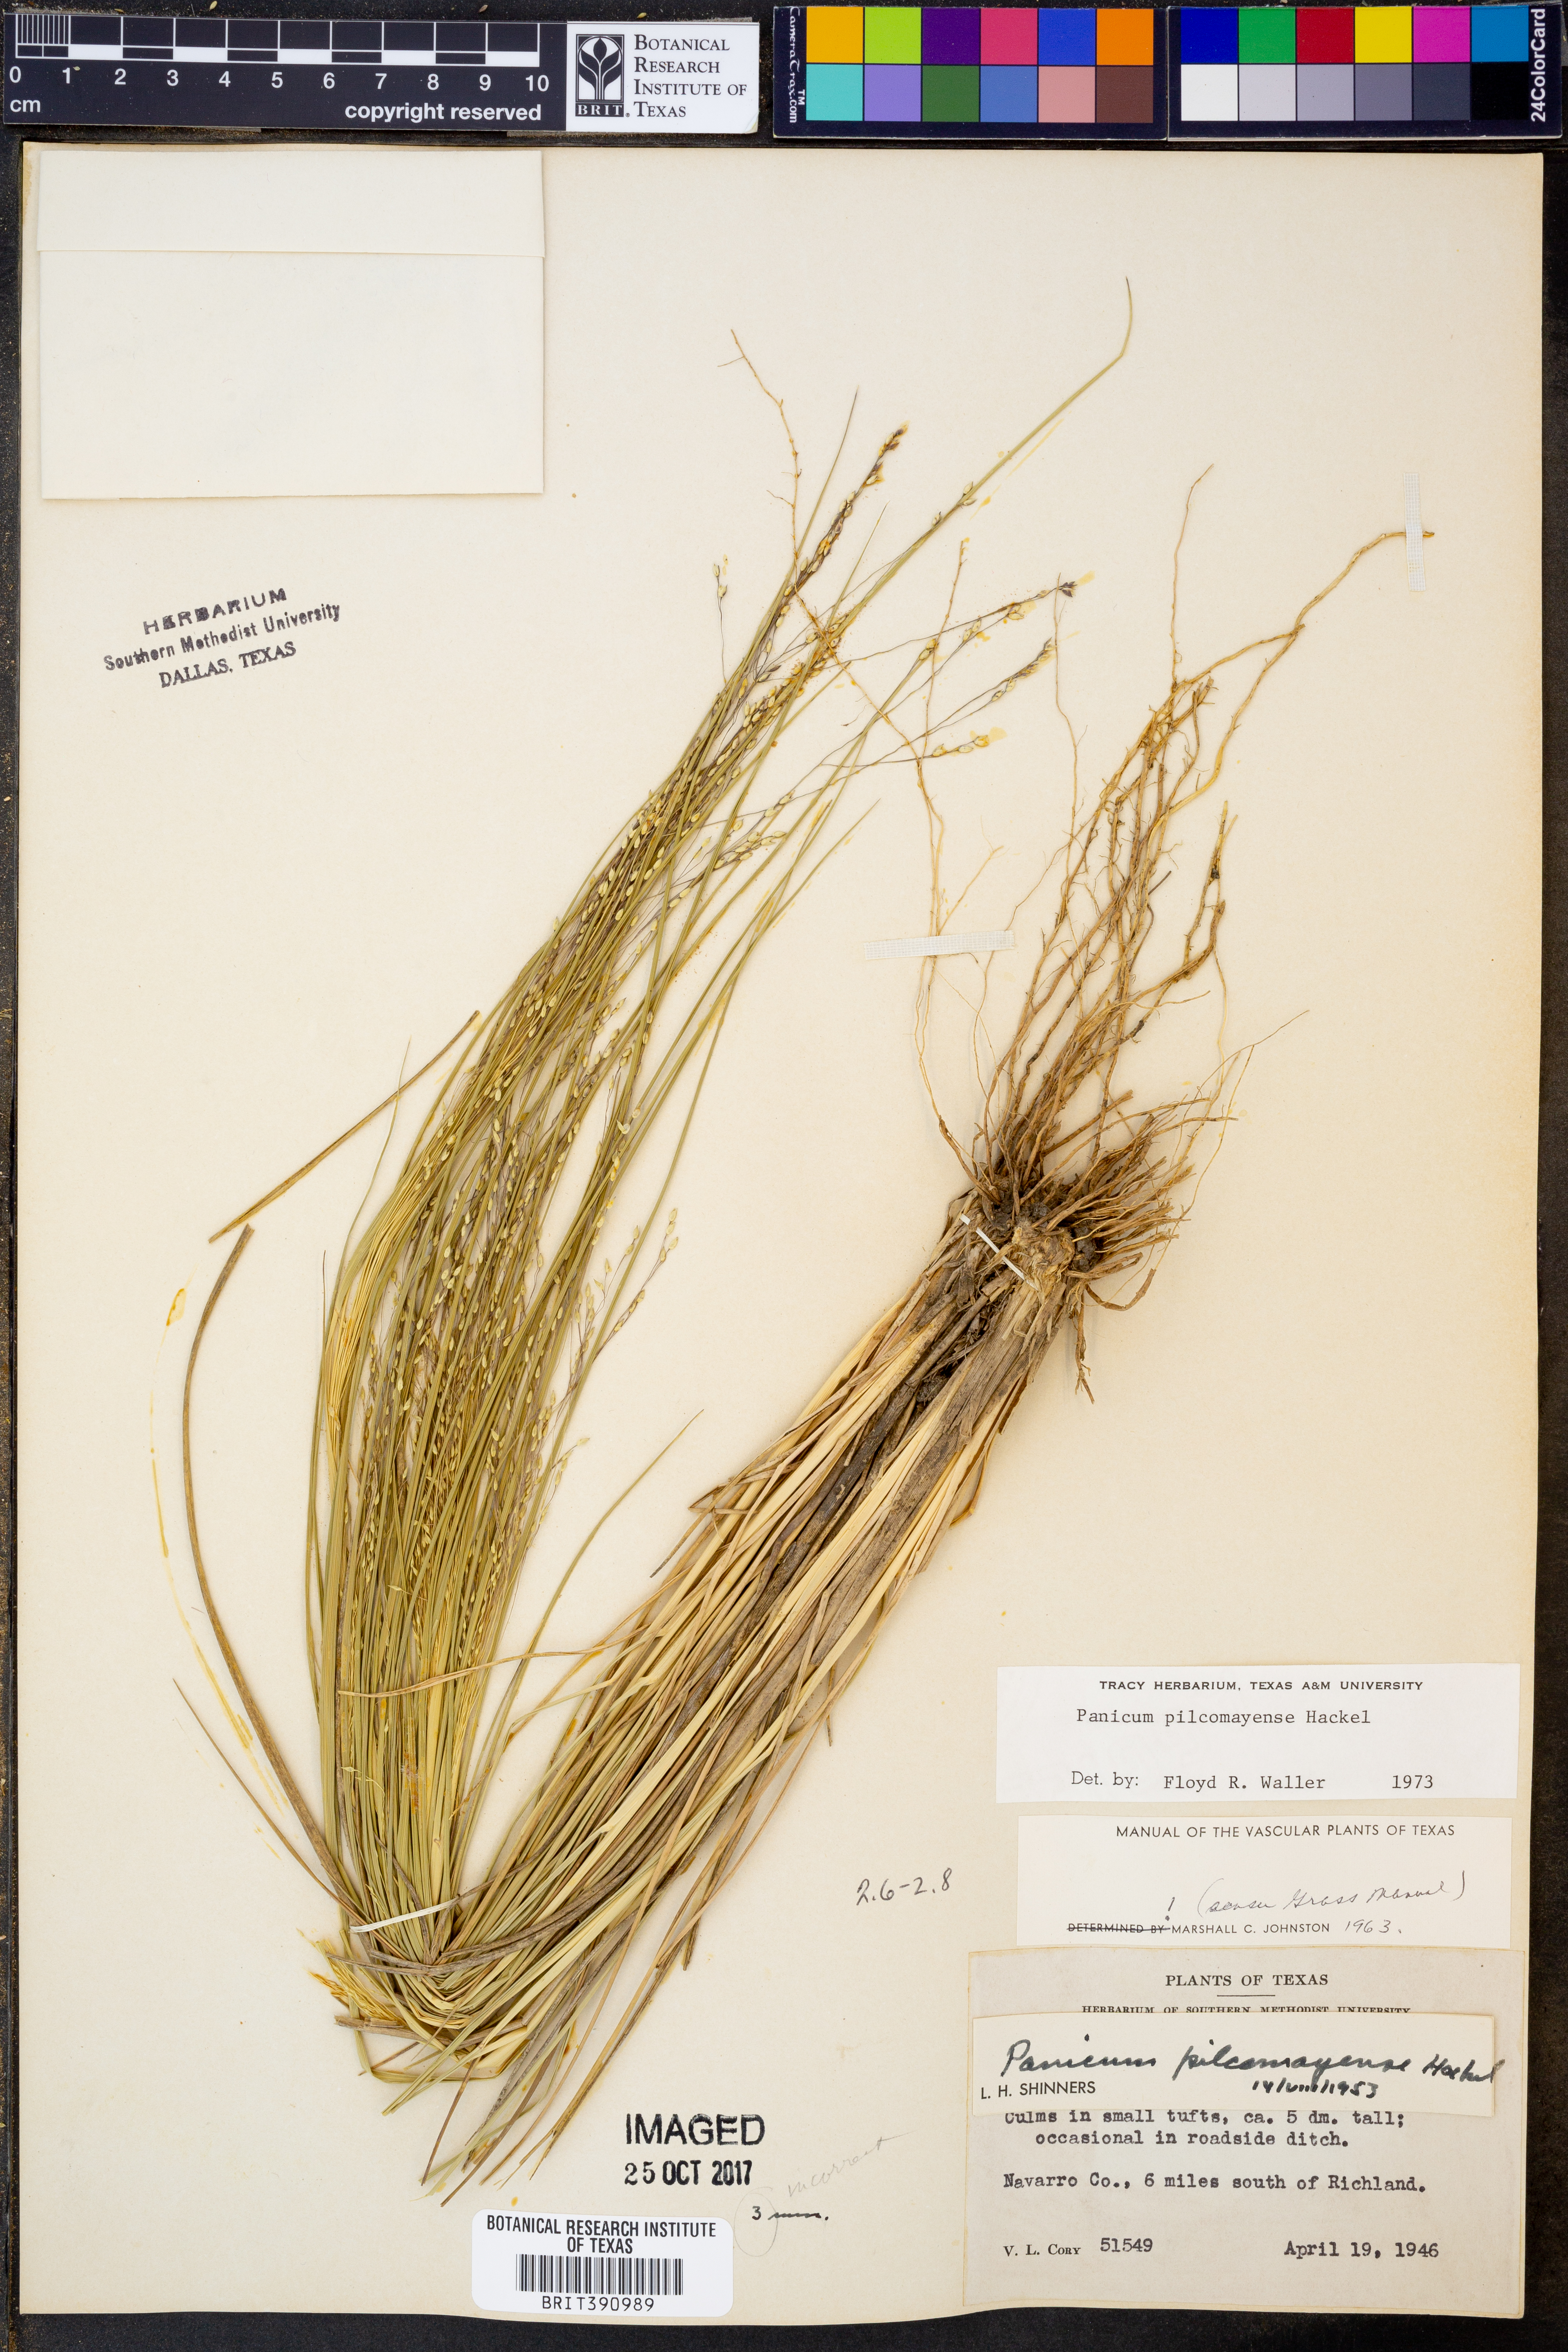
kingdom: Plantae
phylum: Tracheophyta
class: Liliopsida
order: Poales
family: Poaceae
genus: Panicum
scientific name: Panicum bergii
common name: Berg's panicgrass
